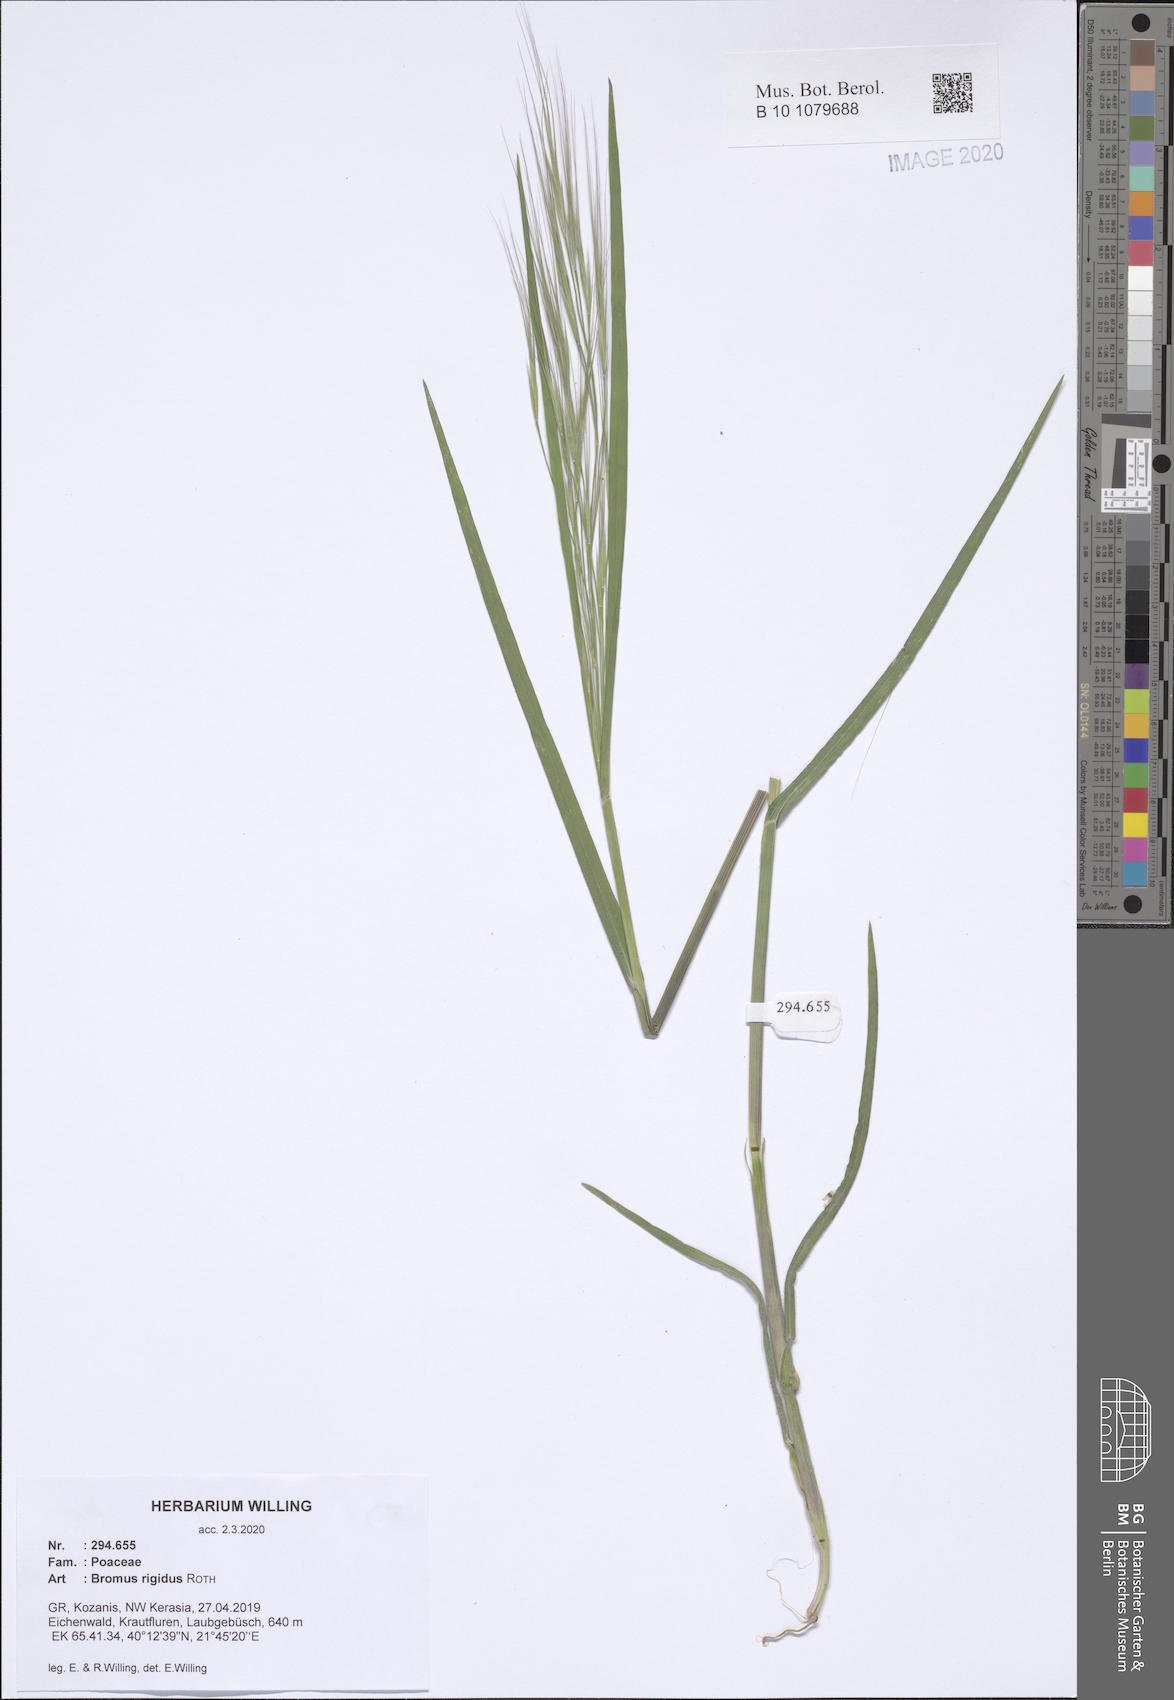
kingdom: Plantae
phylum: Tracheophyta
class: Liliopsida
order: Poales
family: Poaceae
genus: Bromus
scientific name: Bromus rigidus
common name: Ripgut brome
